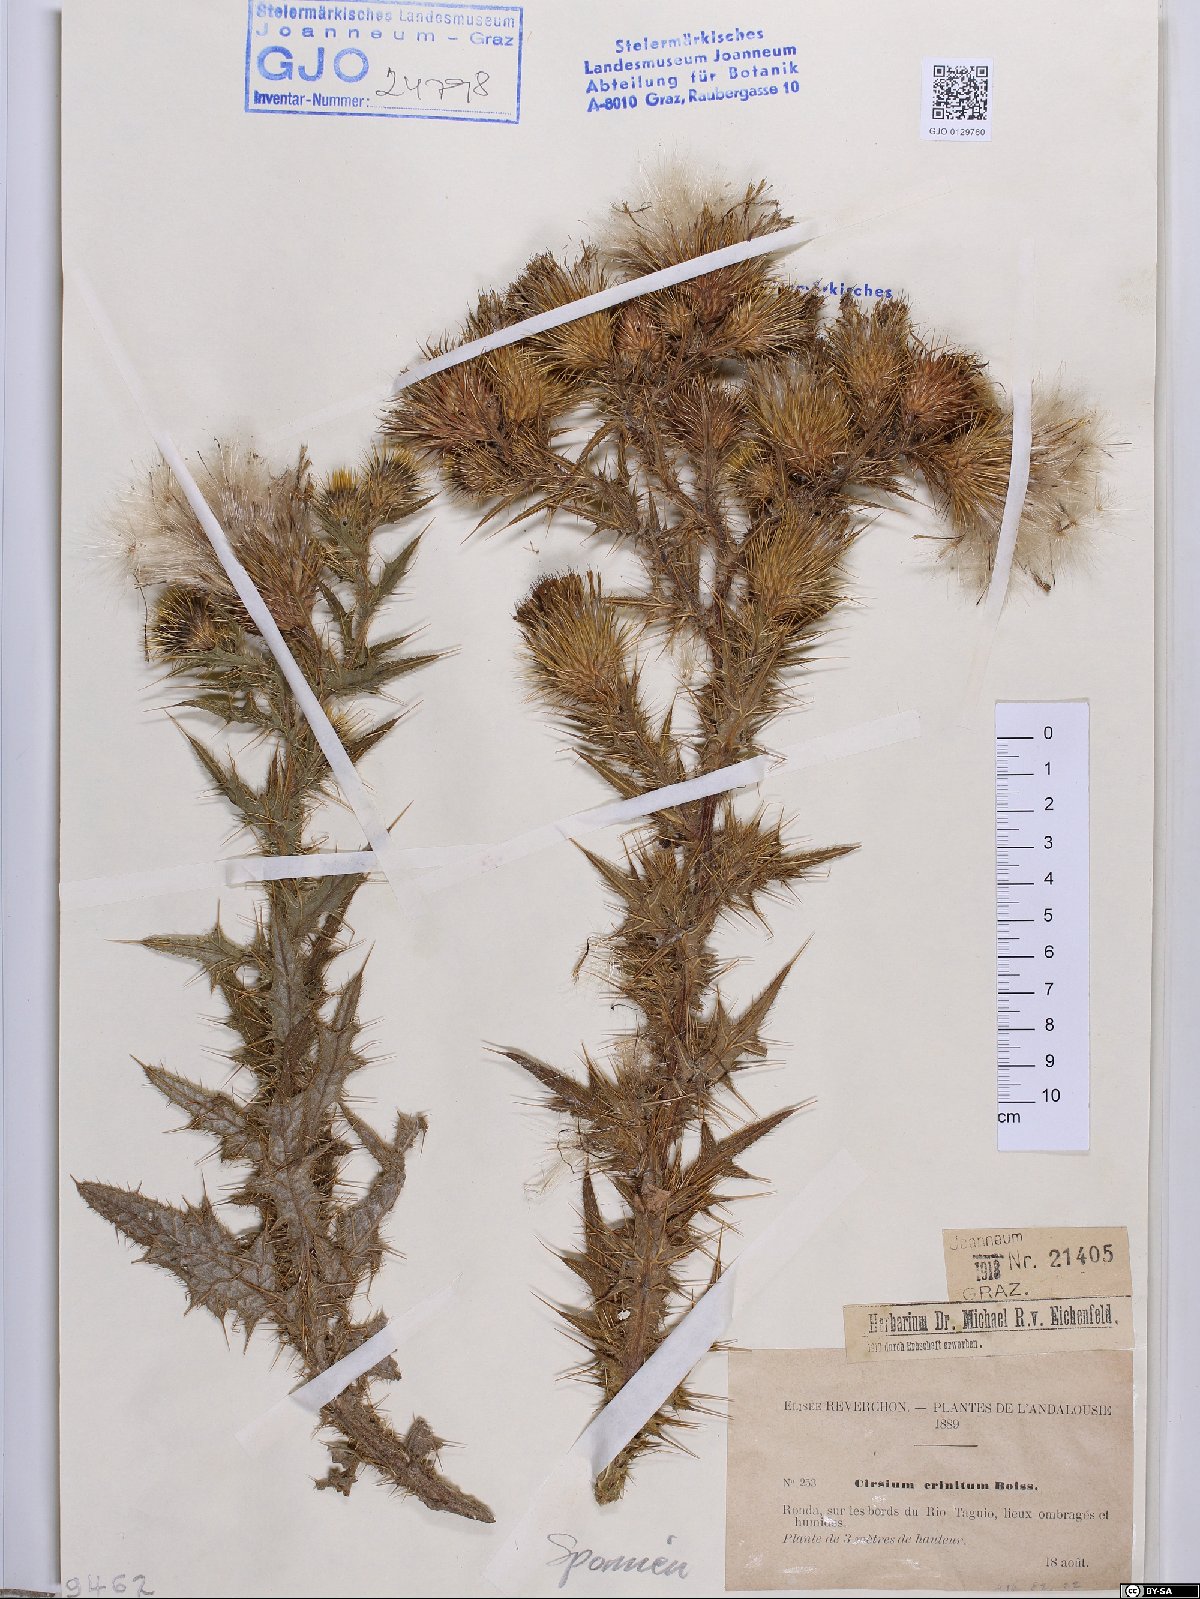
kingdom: Plantae
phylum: Tracheophyta
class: Magnoliopsida
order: Asterales
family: Asteraceae
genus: Cirsium
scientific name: Cirsium vulgare
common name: Bull thistle
